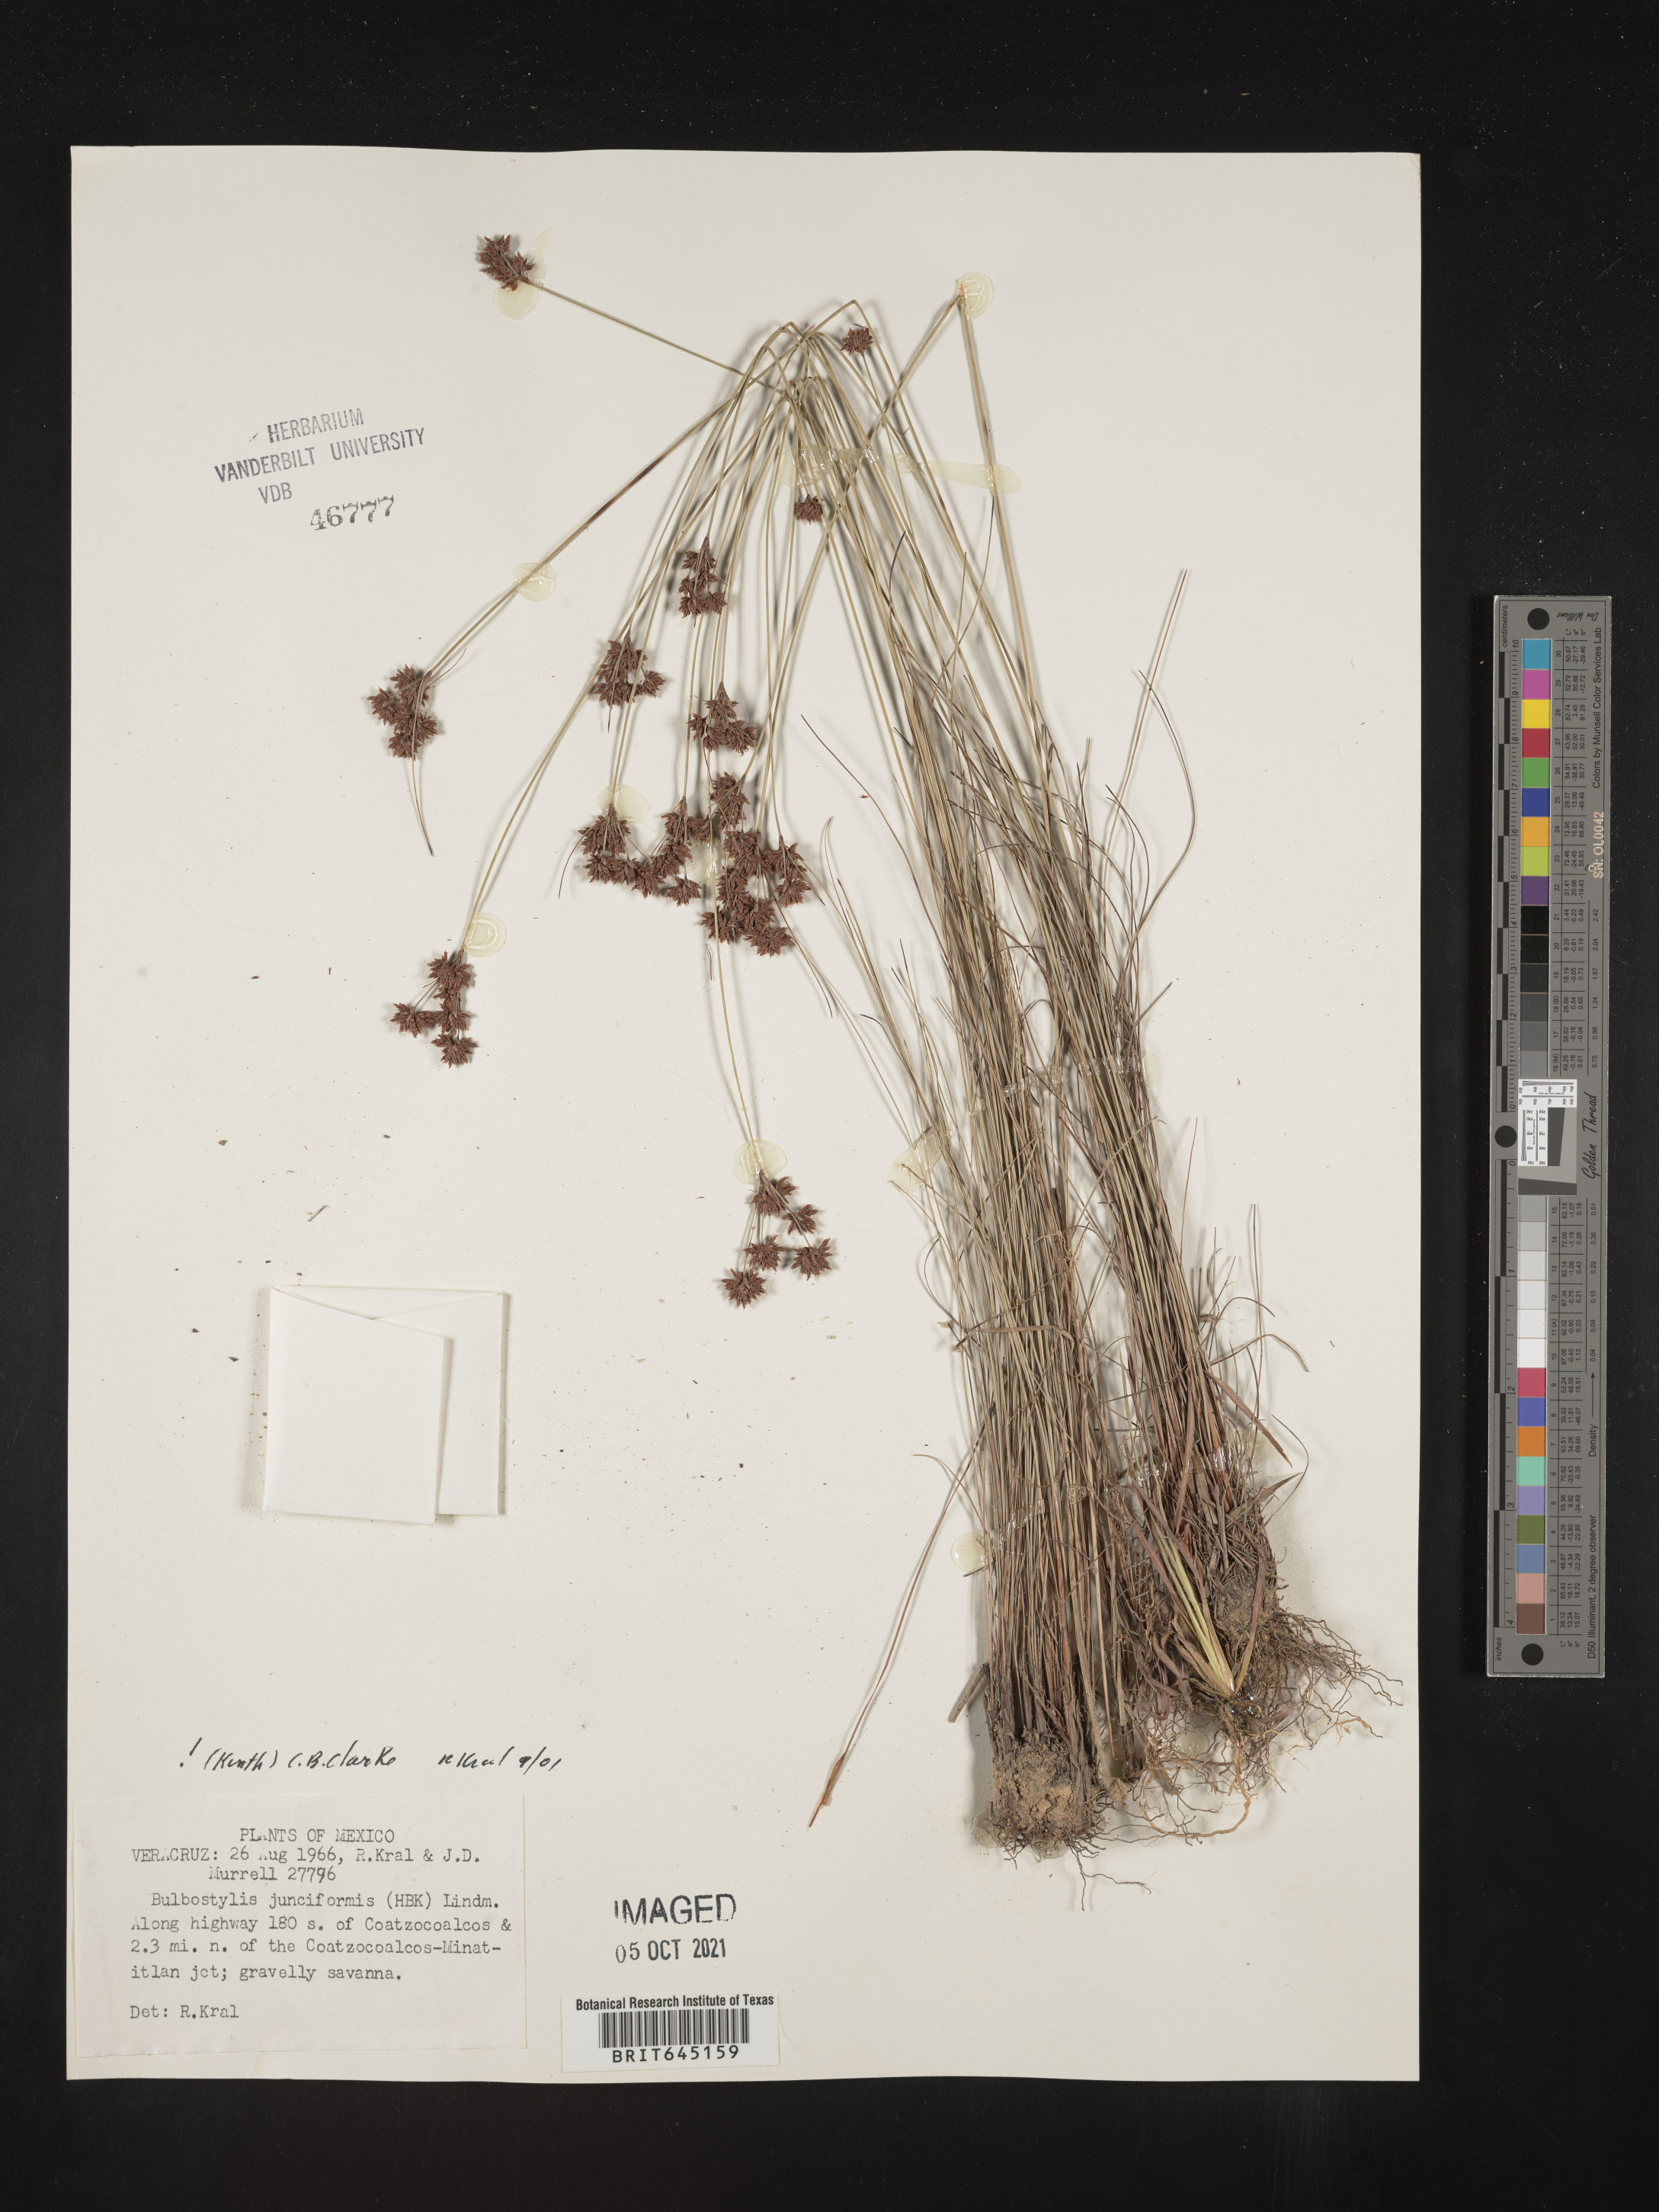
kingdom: Plantae
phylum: Tracheophyta
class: Liliopsida
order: Poales
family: Cyperaceae
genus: Bulbostylis
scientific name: Bulbostylis junciformis
